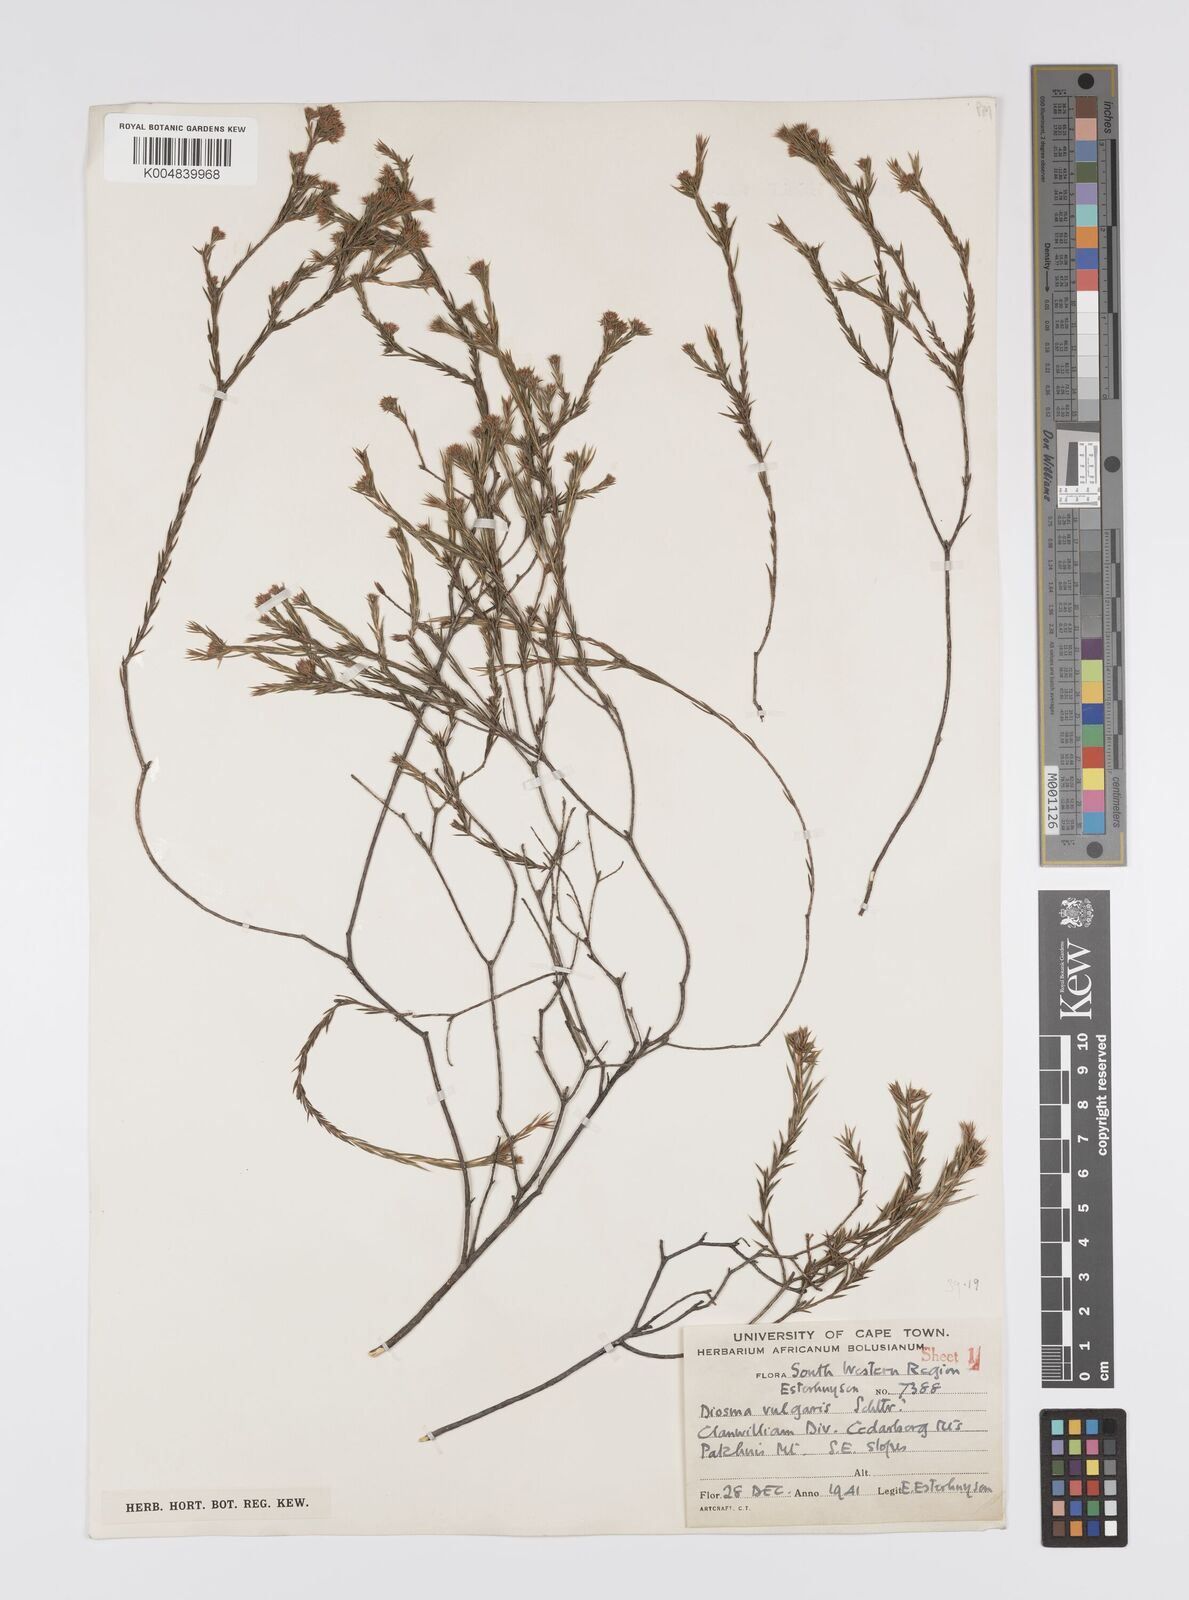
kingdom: Plantae
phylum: Tracheophyta
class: Magnoliopsida
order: Sapindales
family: Rutaceae
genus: Diosma
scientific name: Diosma acmaeophylla
